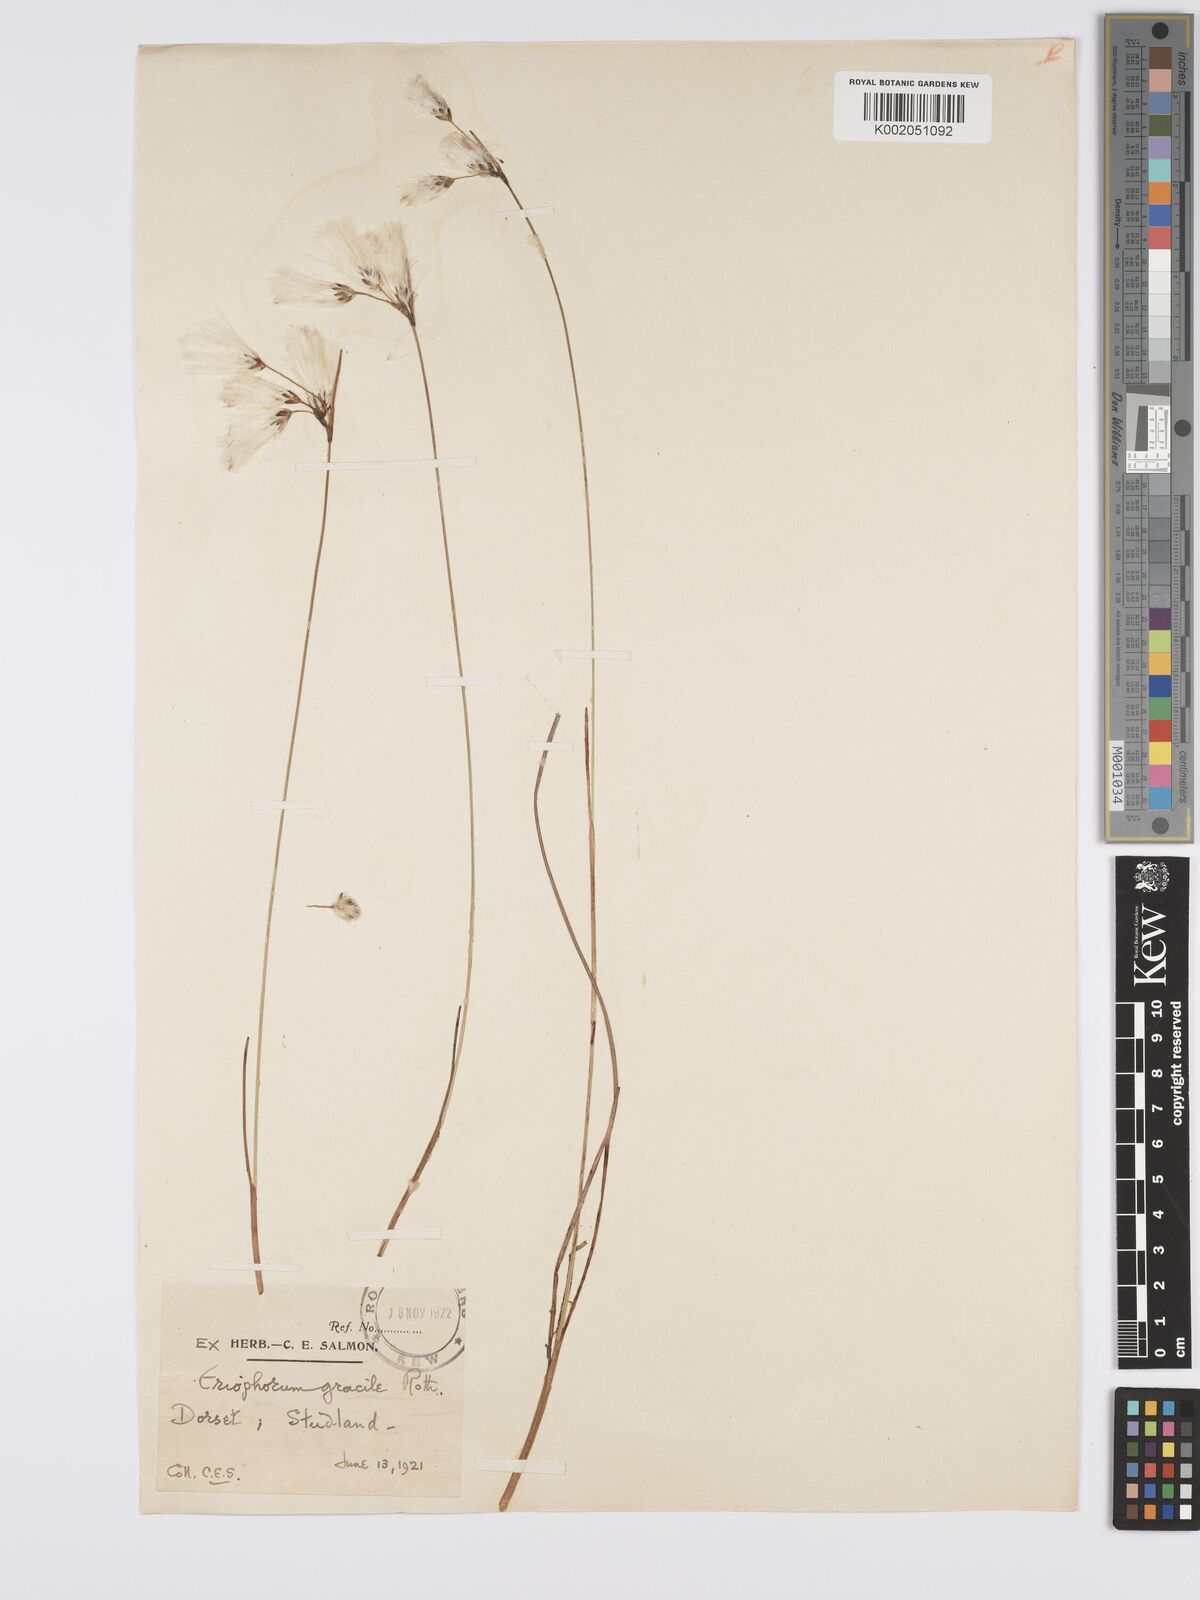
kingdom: Plantae
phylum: Tracheophyta
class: Liliopsida
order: Poales
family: Cyperaceae
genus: Eriophorum
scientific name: Eriophorum gracile
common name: Slender cottongrass
